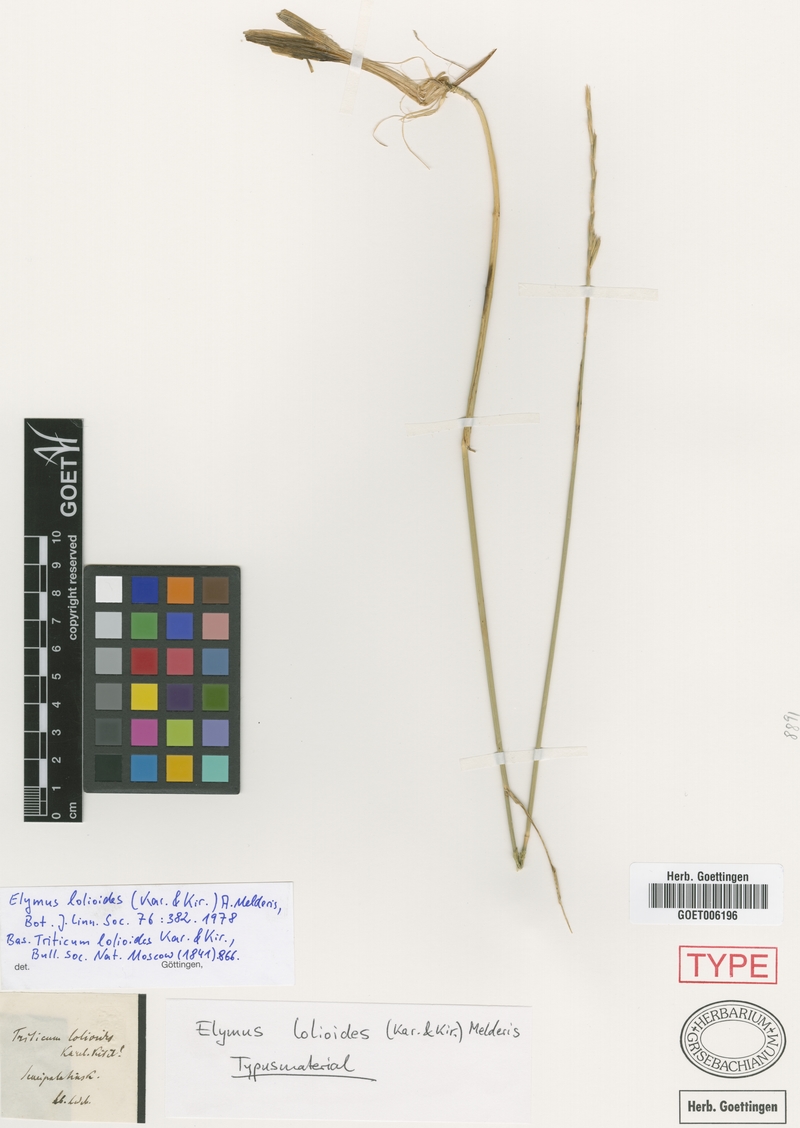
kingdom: Plantae
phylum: Tracheophyta
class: Liliopsida
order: Poales
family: Poaceae
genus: Elymus
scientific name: Elymus lolioides
